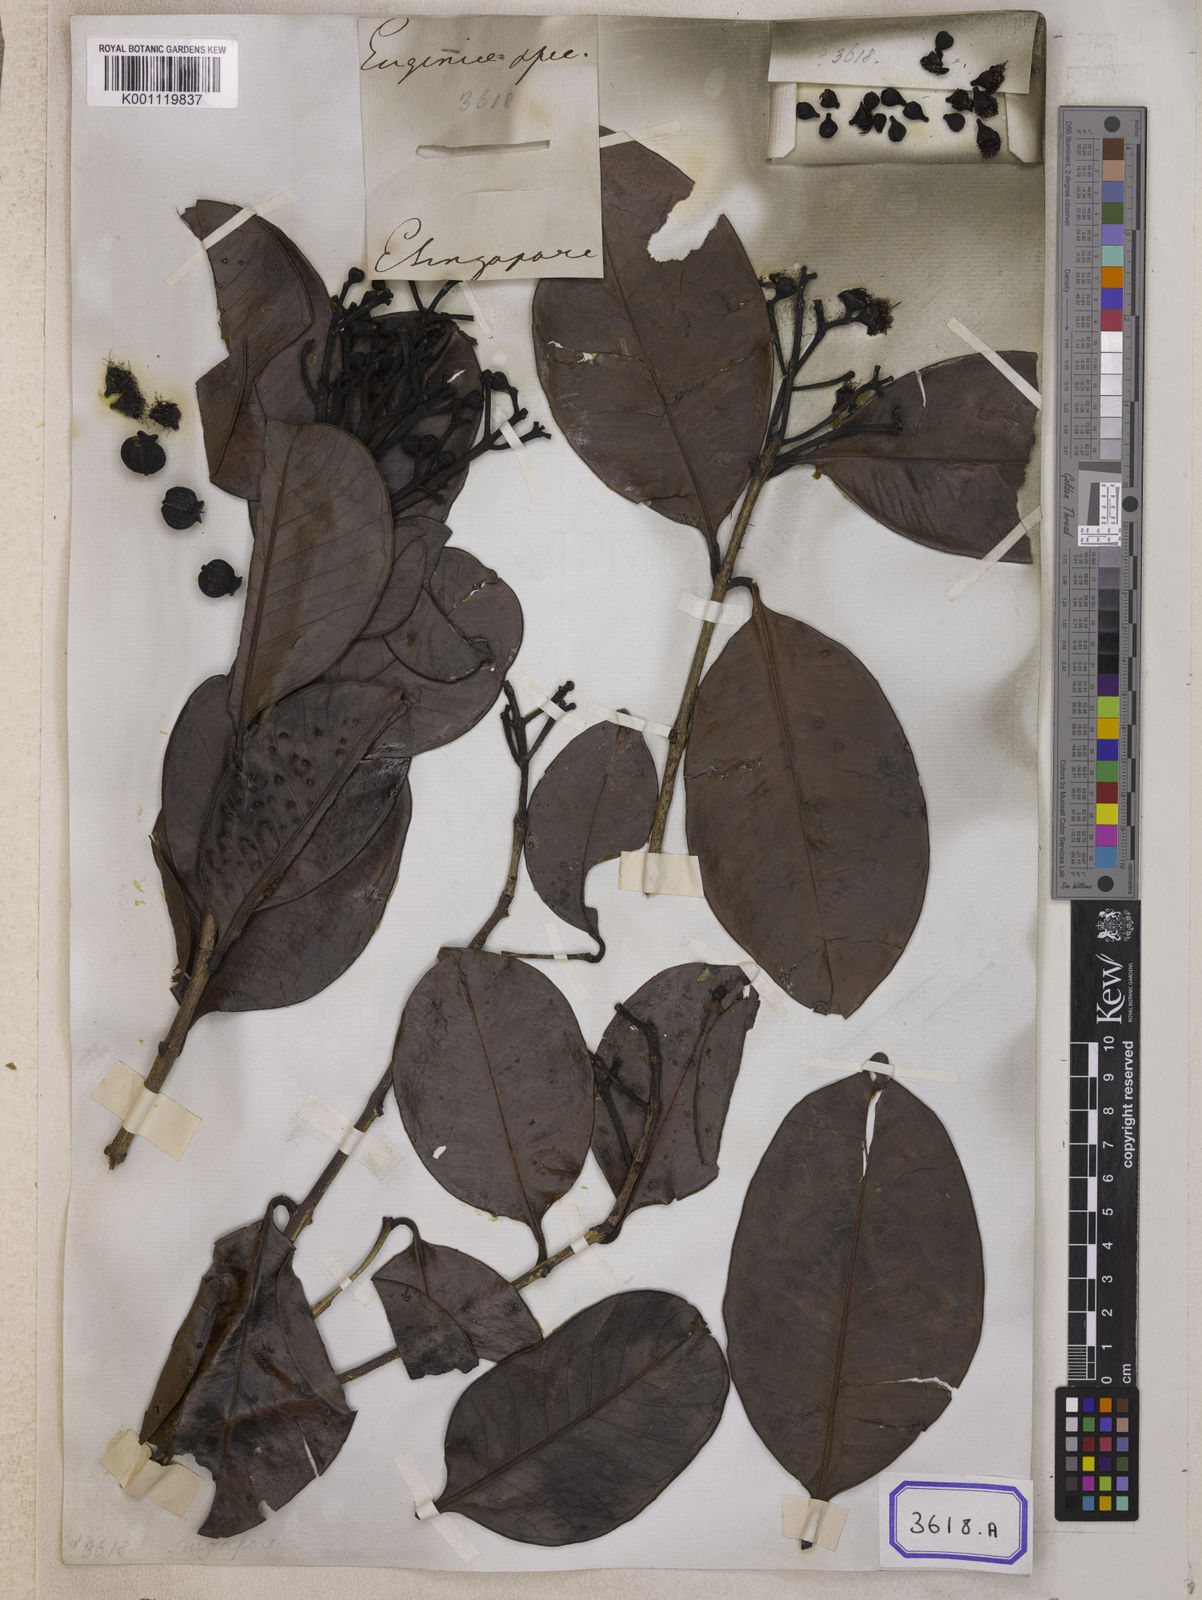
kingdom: Plantae
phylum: Tracheophyta
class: Magnoliopsida
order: Myrtales
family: Myrtaceae
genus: Eugenia
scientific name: Eugenia
